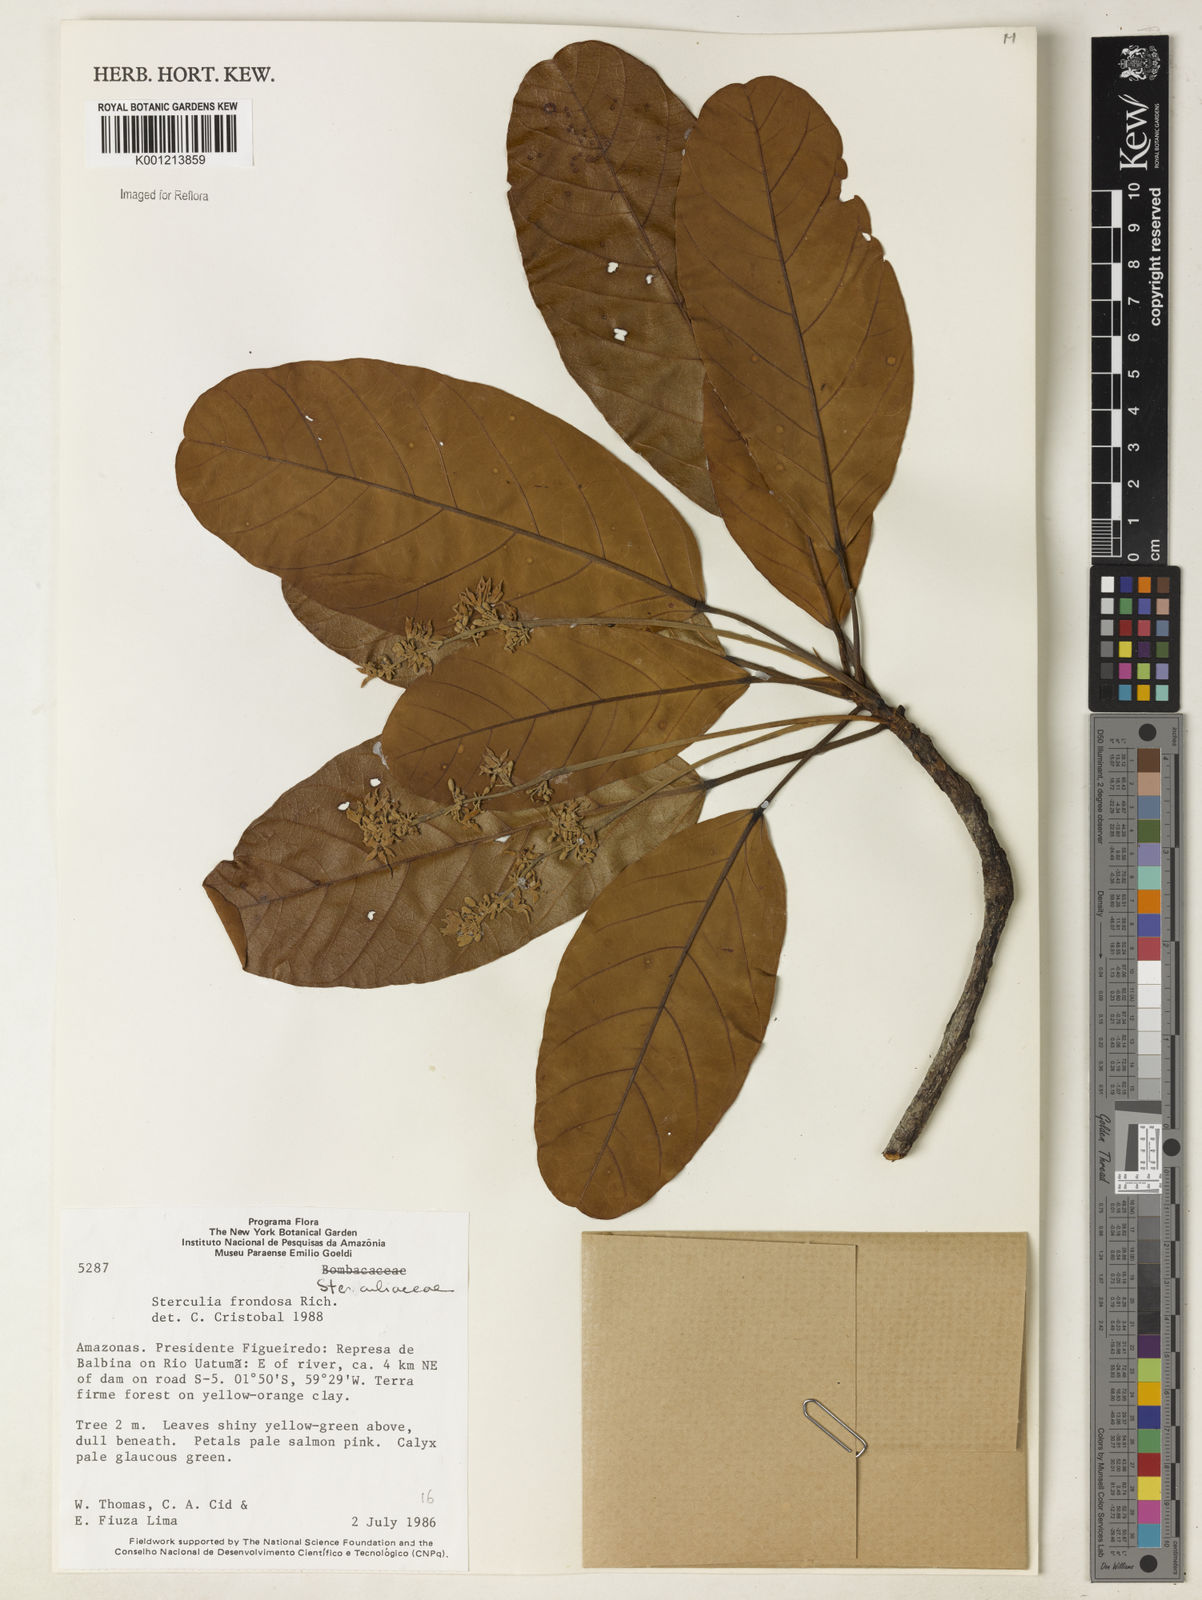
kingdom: Plantae
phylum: Tracheophyta
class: Magnoliopsida
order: Malvales
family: Malvaceae
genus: Sterculia
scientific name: Sterculia frondosa
